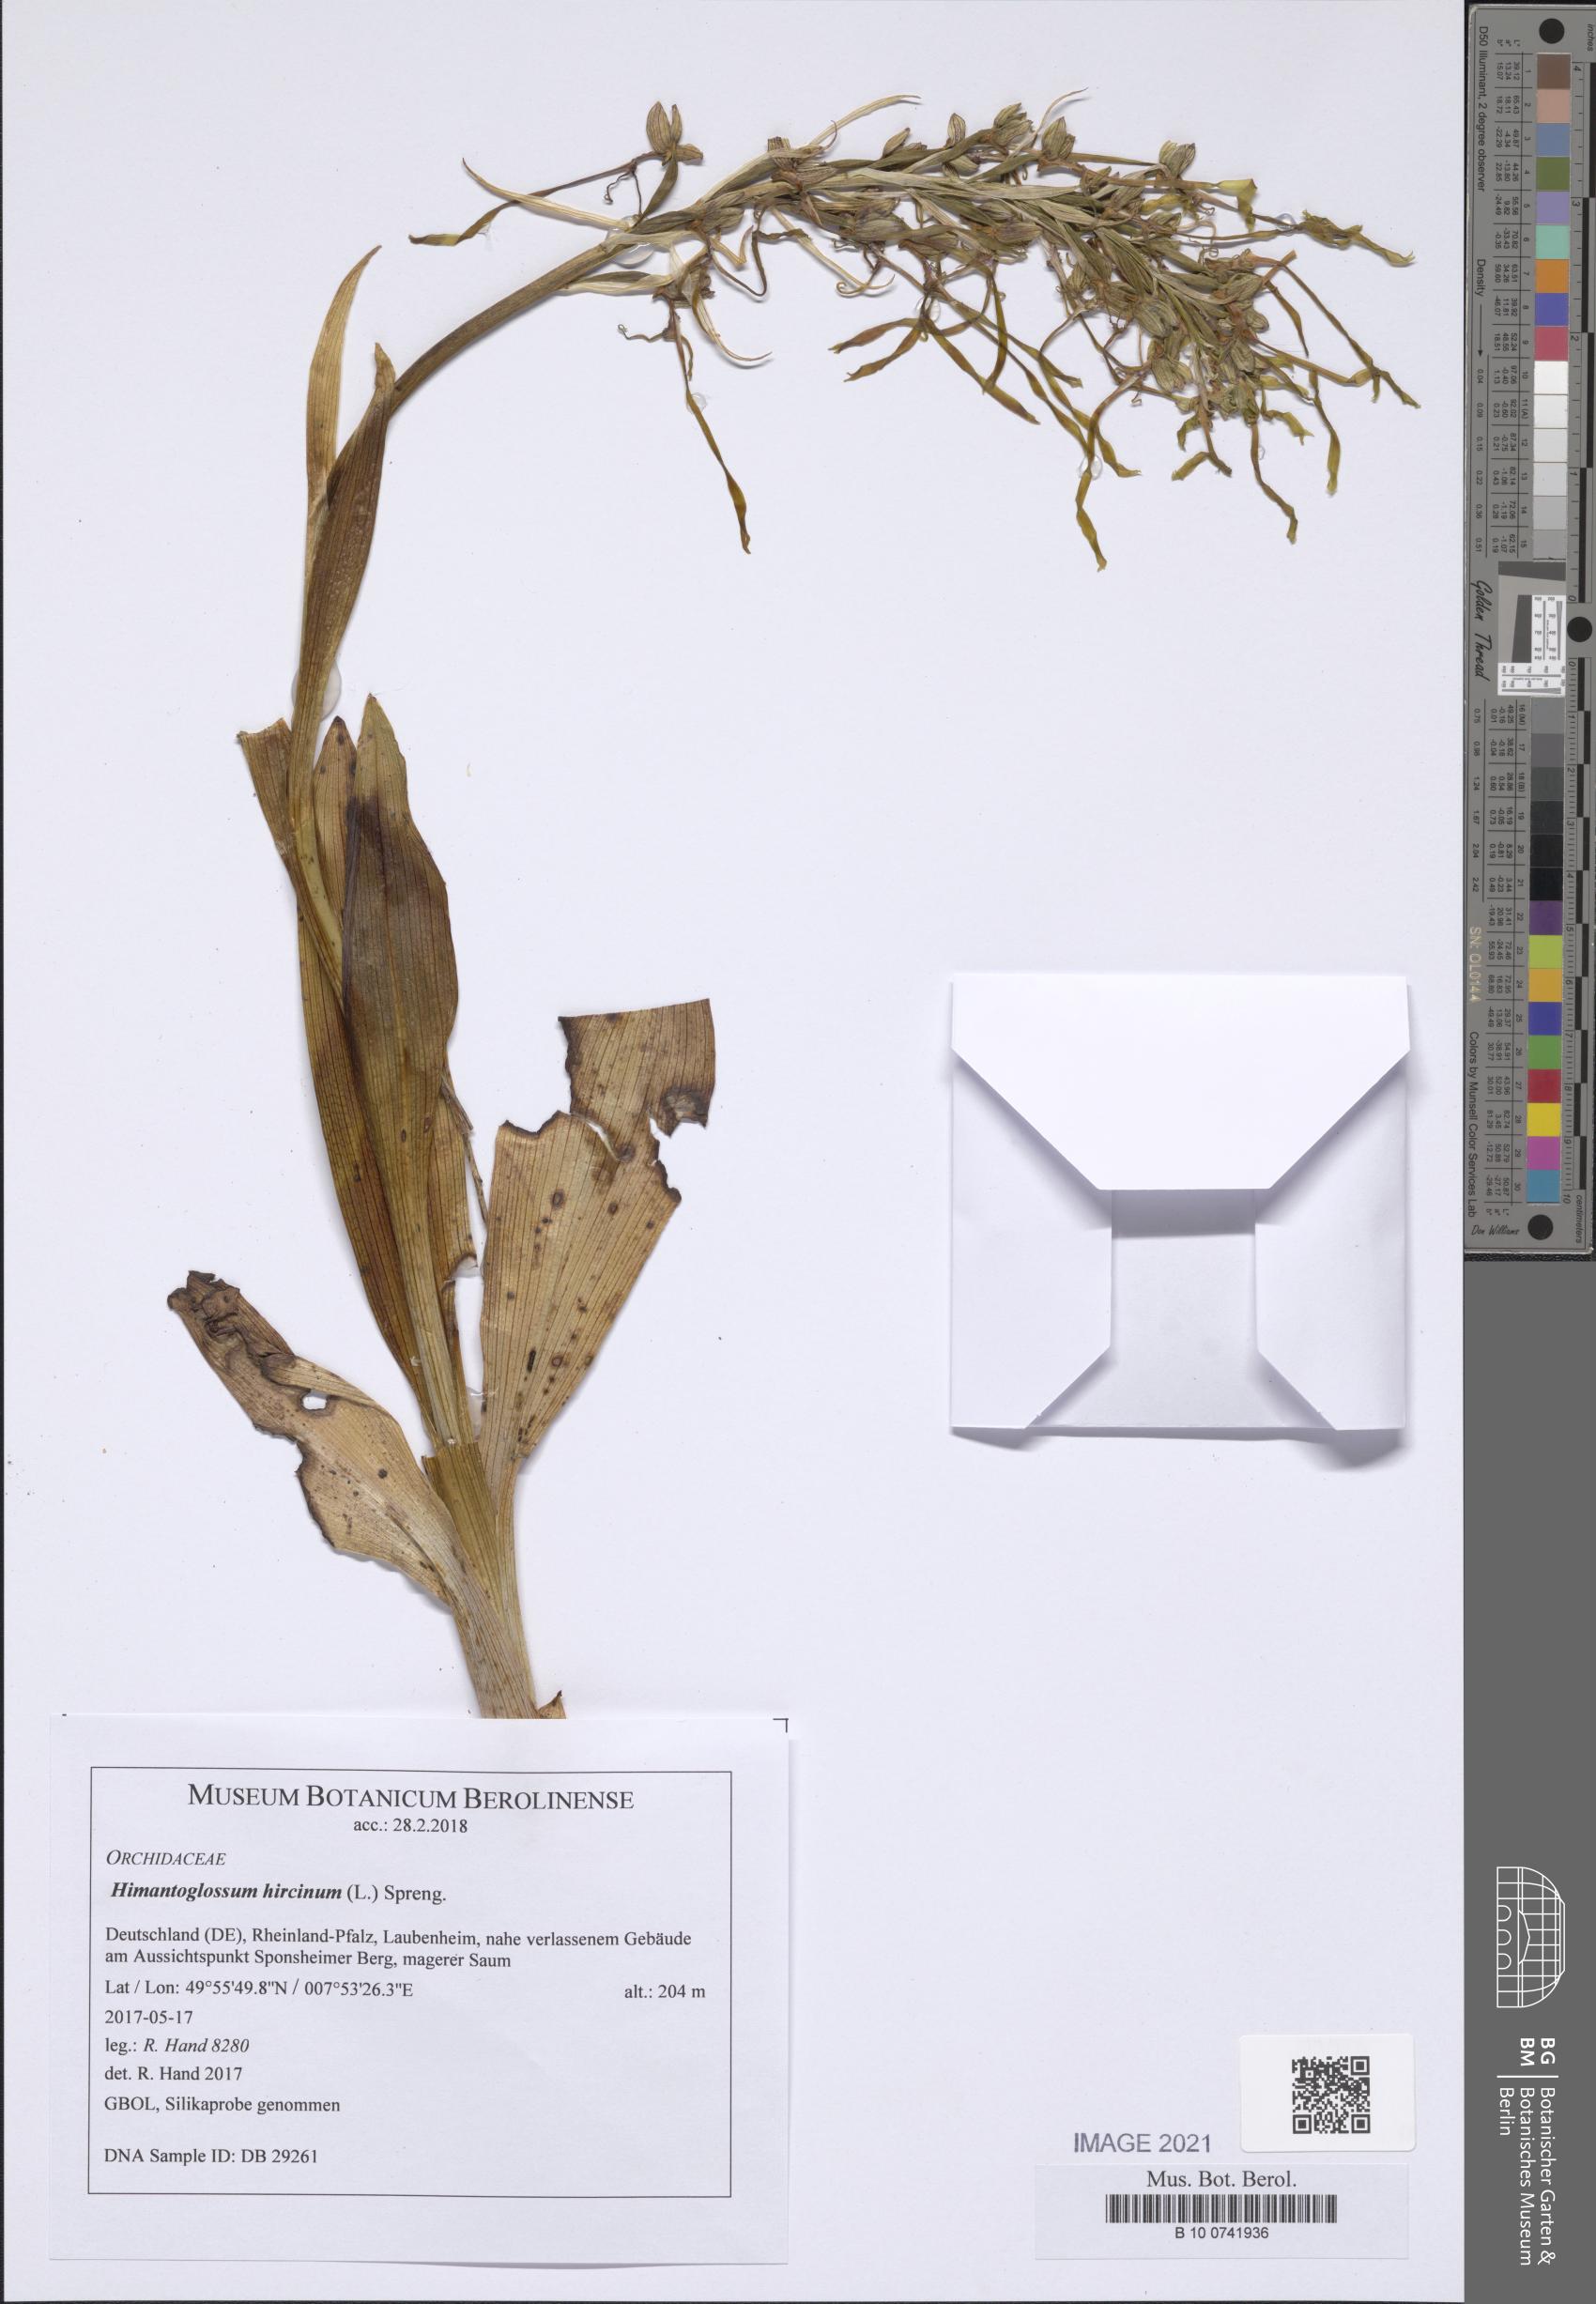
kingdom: Plantae
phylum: Tracheophyta
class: Liliopsida
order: Asparagales
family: Orchidaceae
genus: Himantoglossum
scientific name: Himantoglossum hircinum
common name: Lizard orchid
